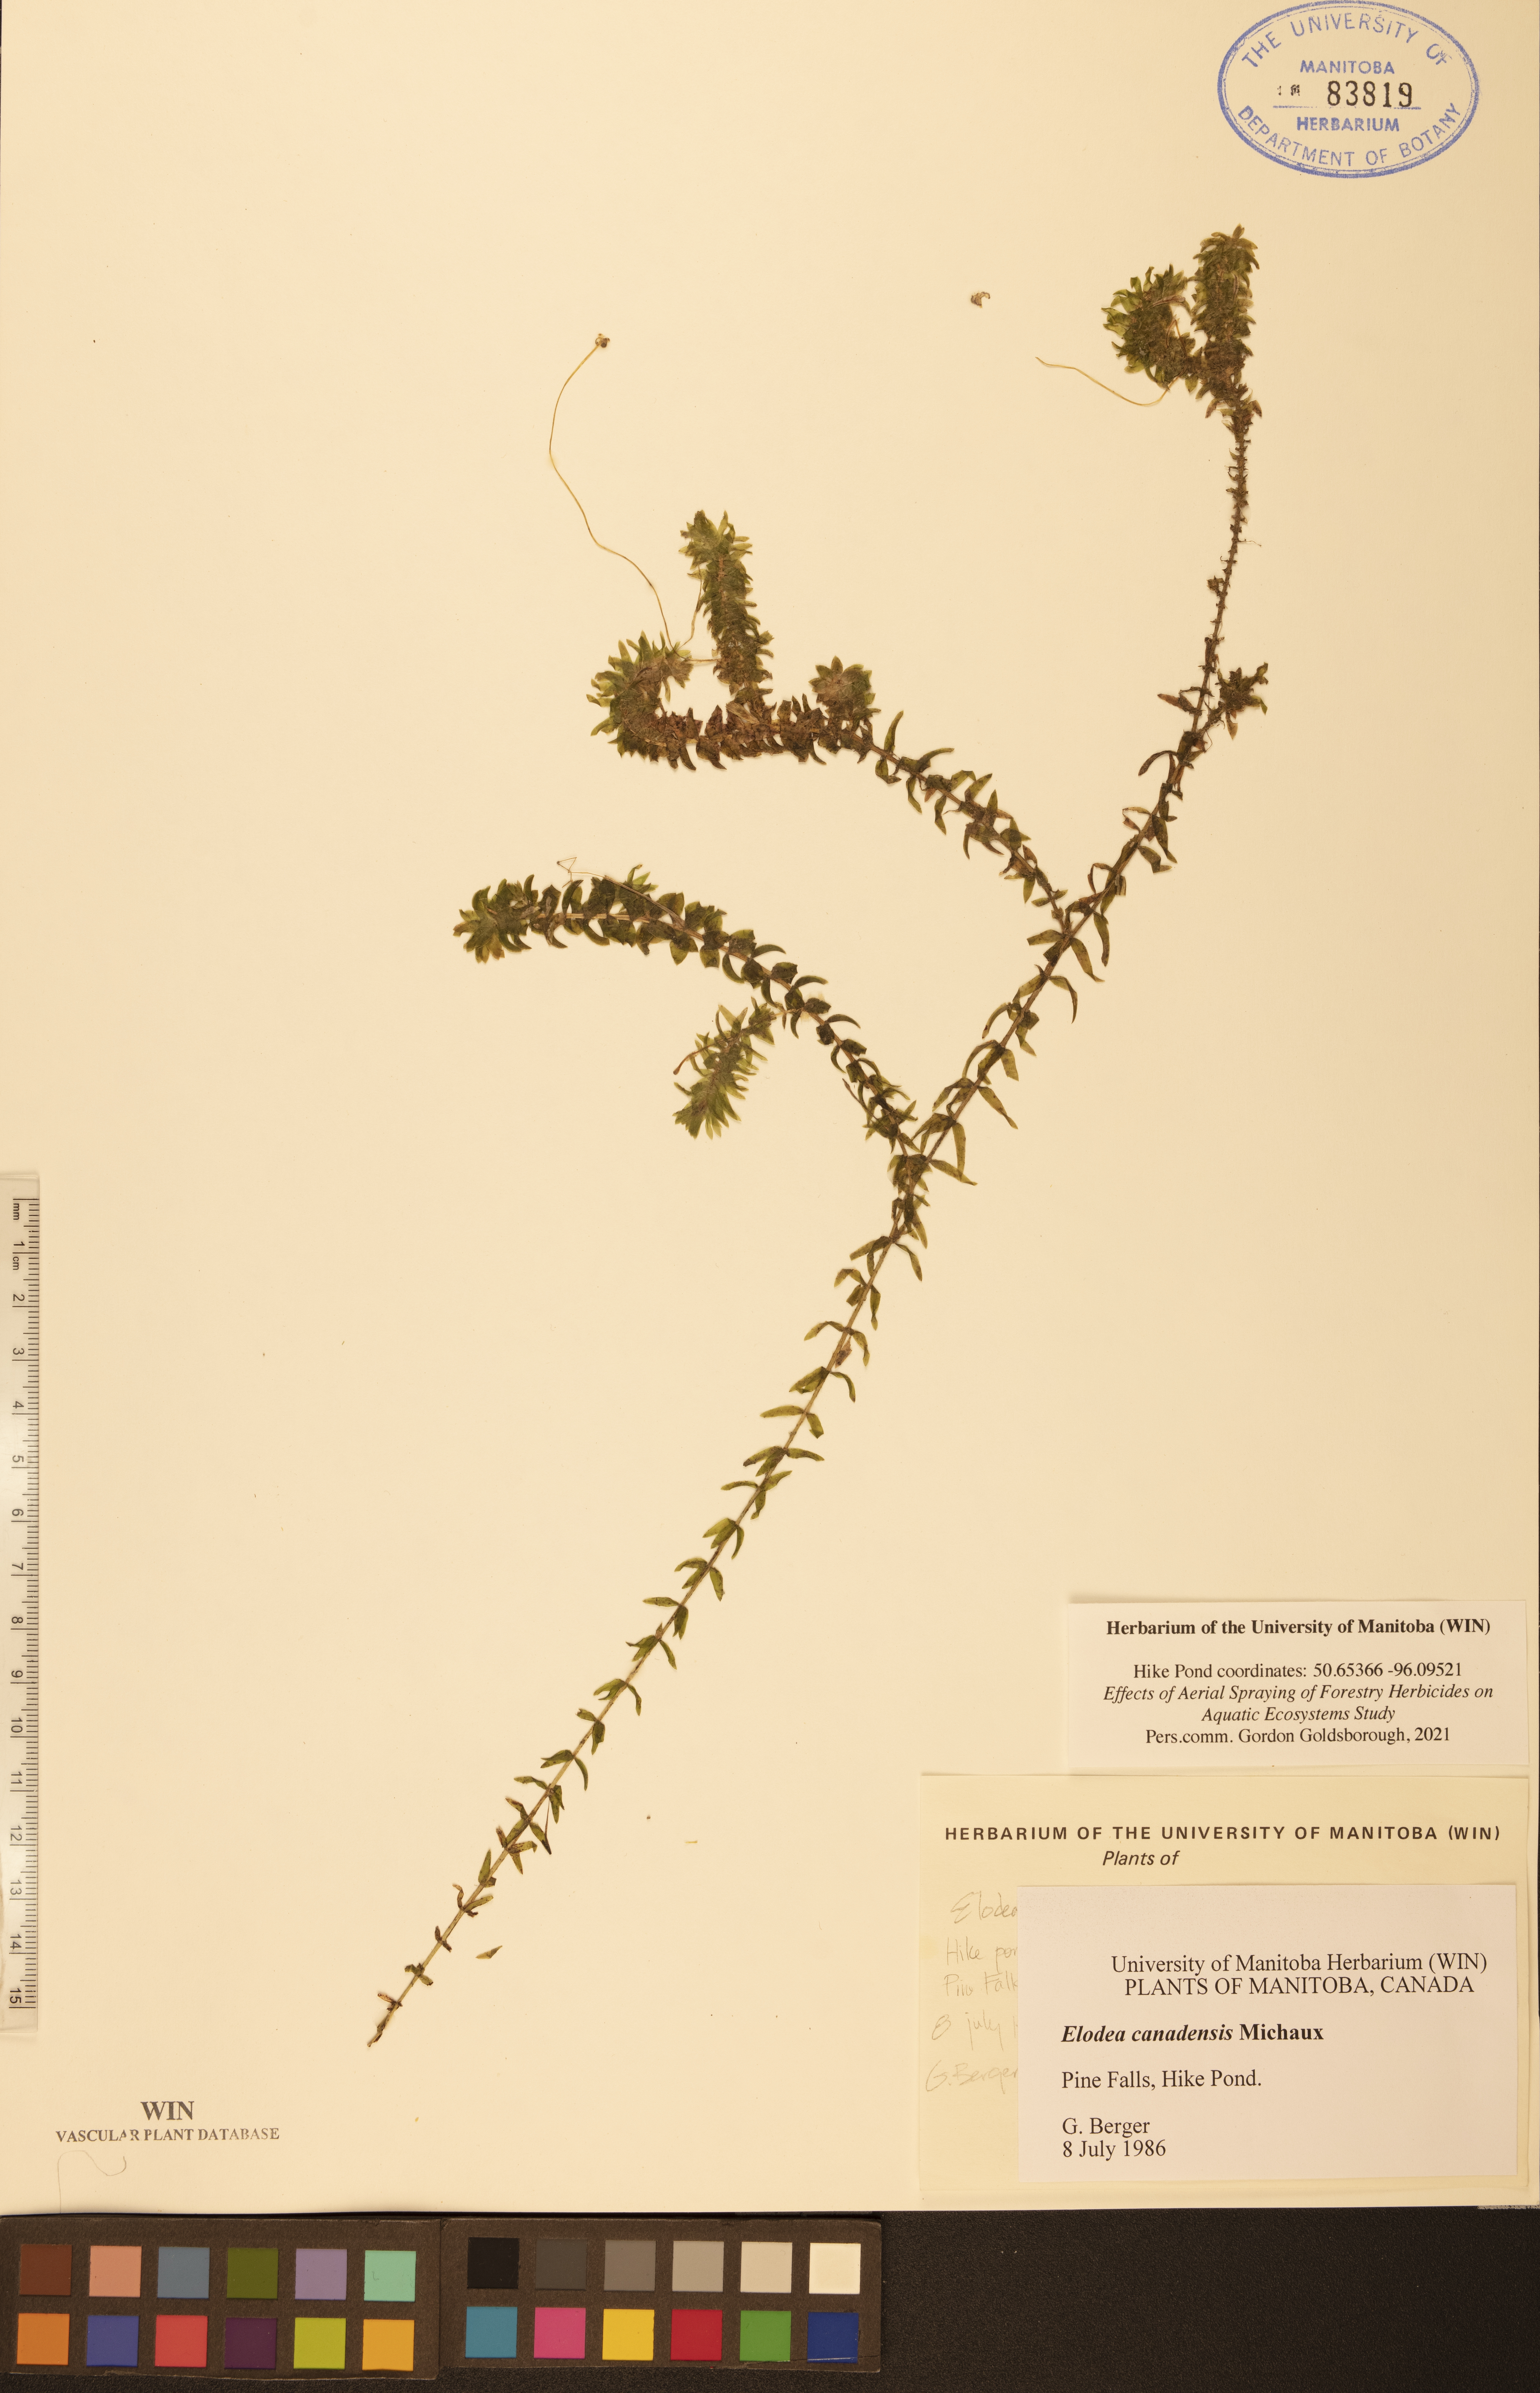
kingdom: Plantae
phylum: Tracheophyta
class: Liliopsida
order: Alismatales
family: Hydrocharitaceae
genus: Elodea
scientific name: Elodea canadensis
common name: Canadian waterweed
